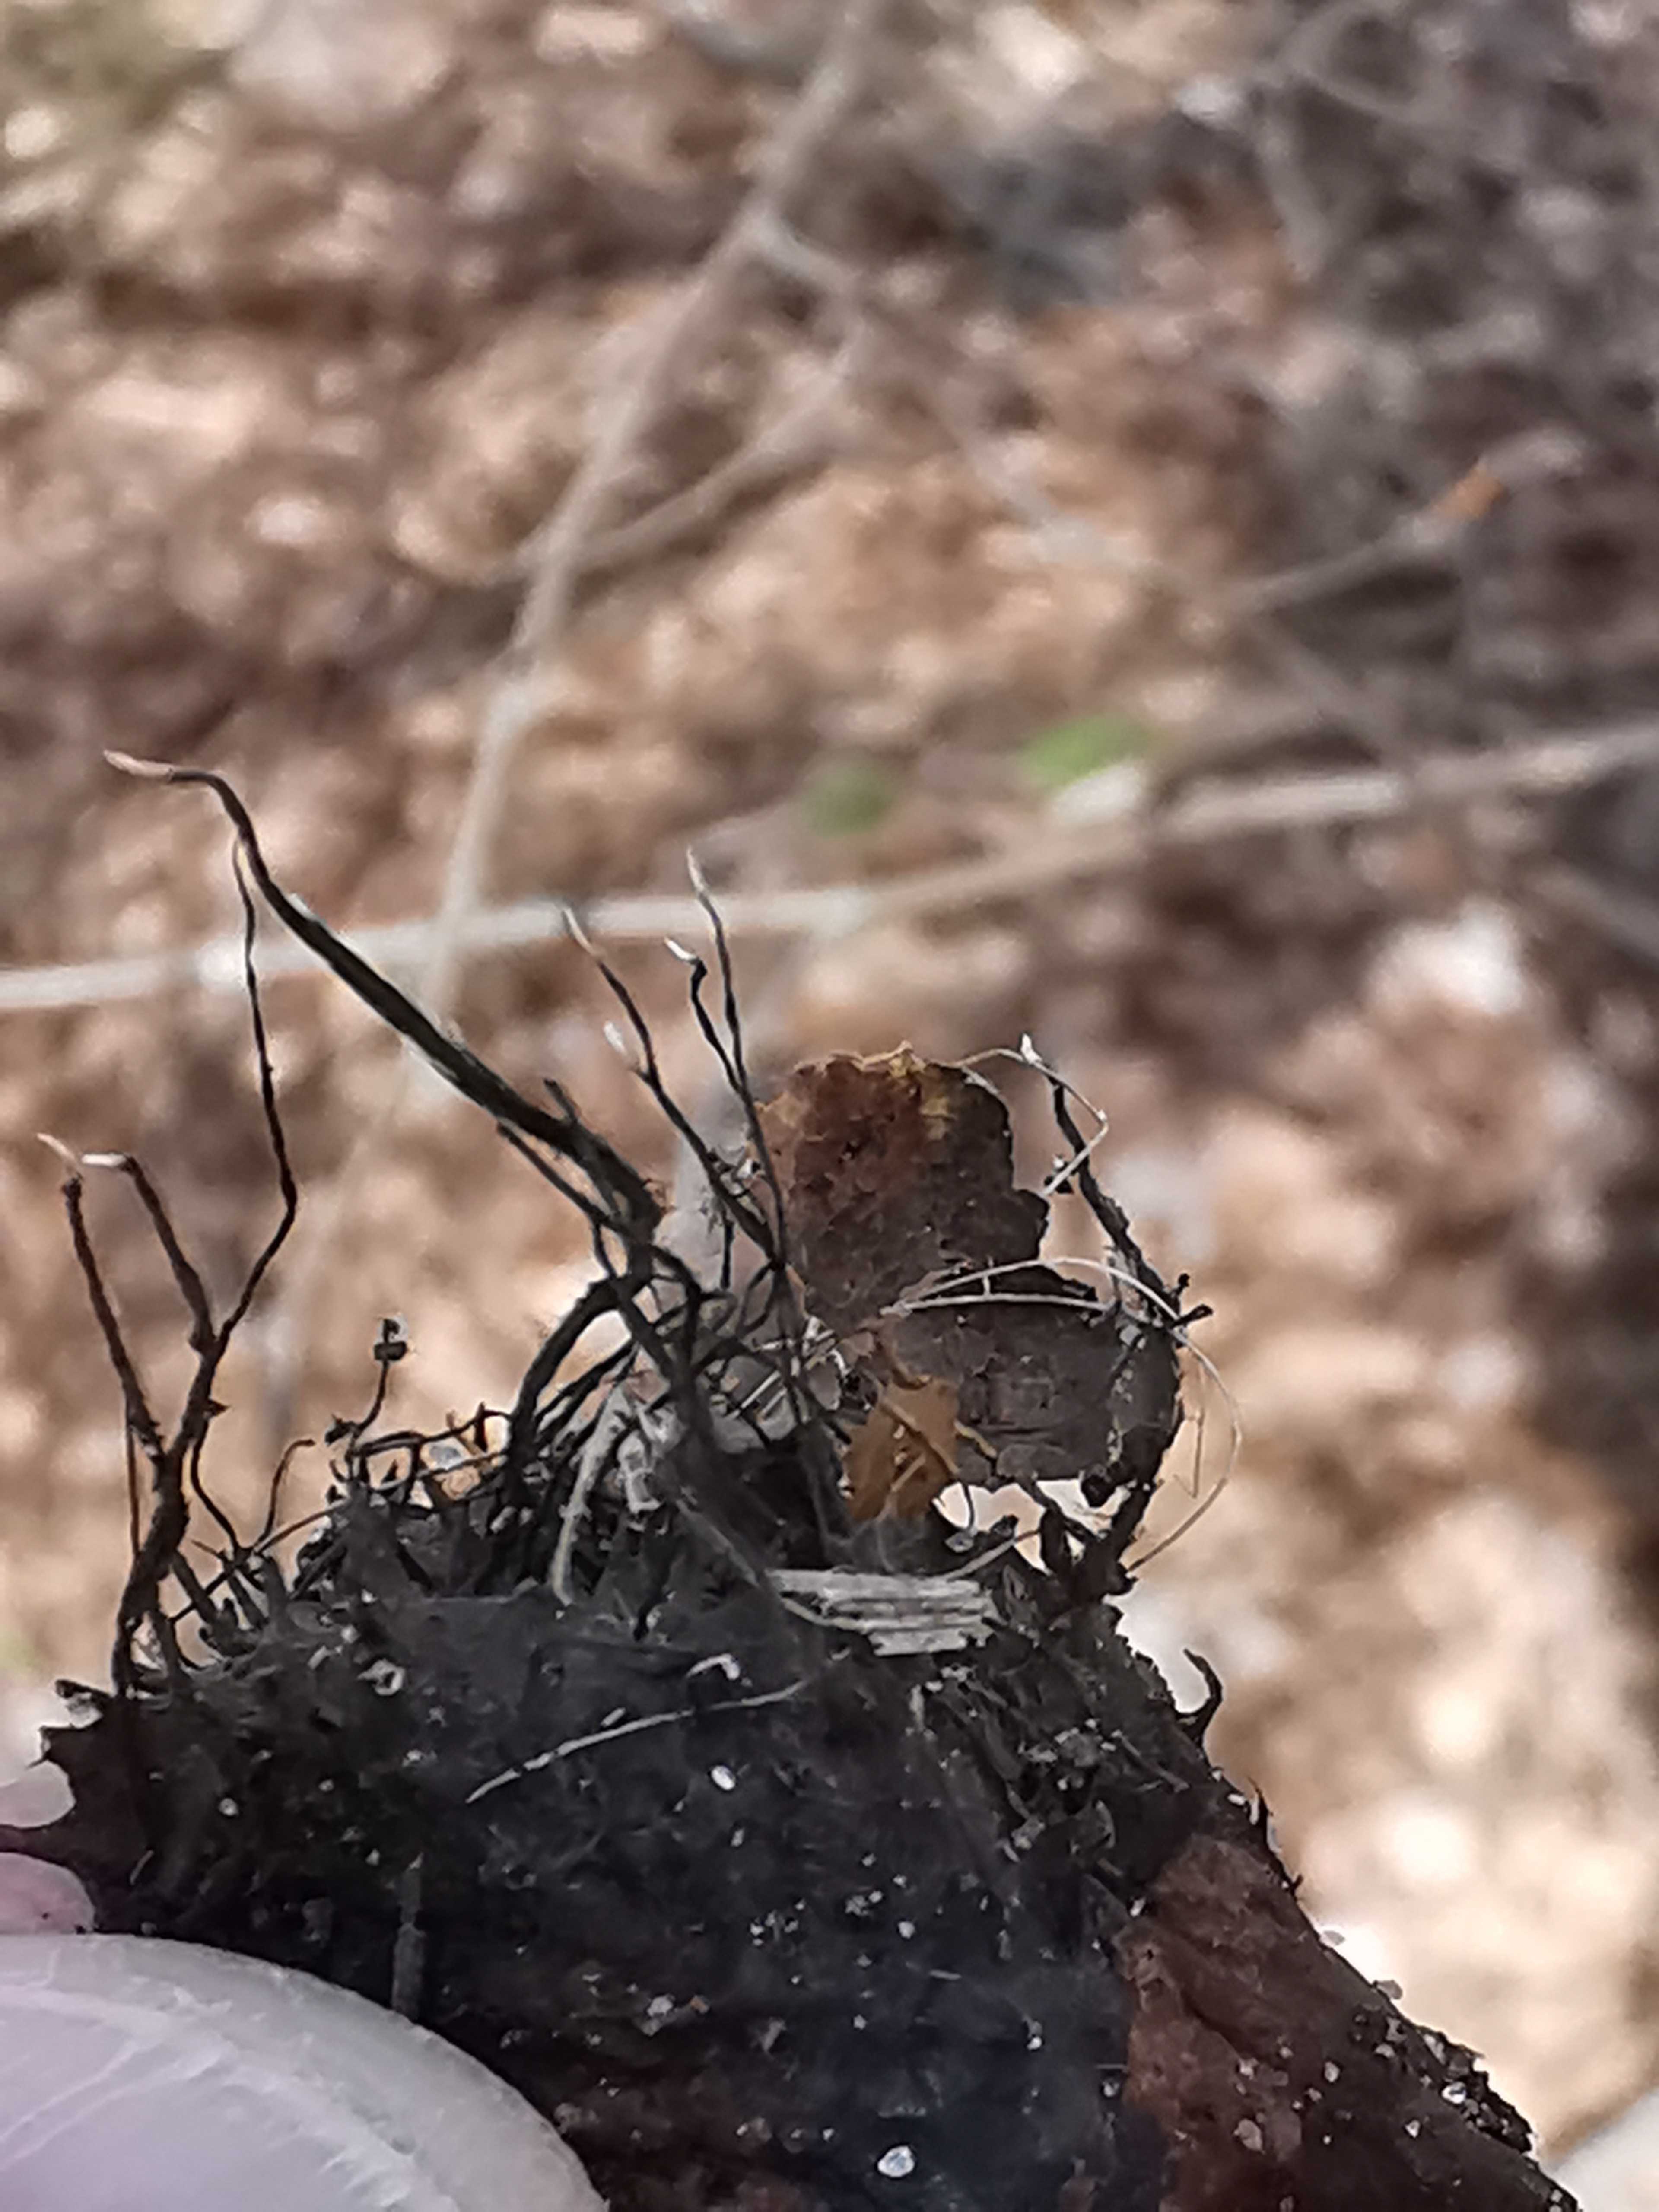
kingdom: Fungi
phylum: Ascomycota
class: Sordariomycetes
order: Xylariales
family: Xylariaceae
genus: Xylaria
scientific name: Xylaria carpophila
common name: bogskål-stødsvamp
